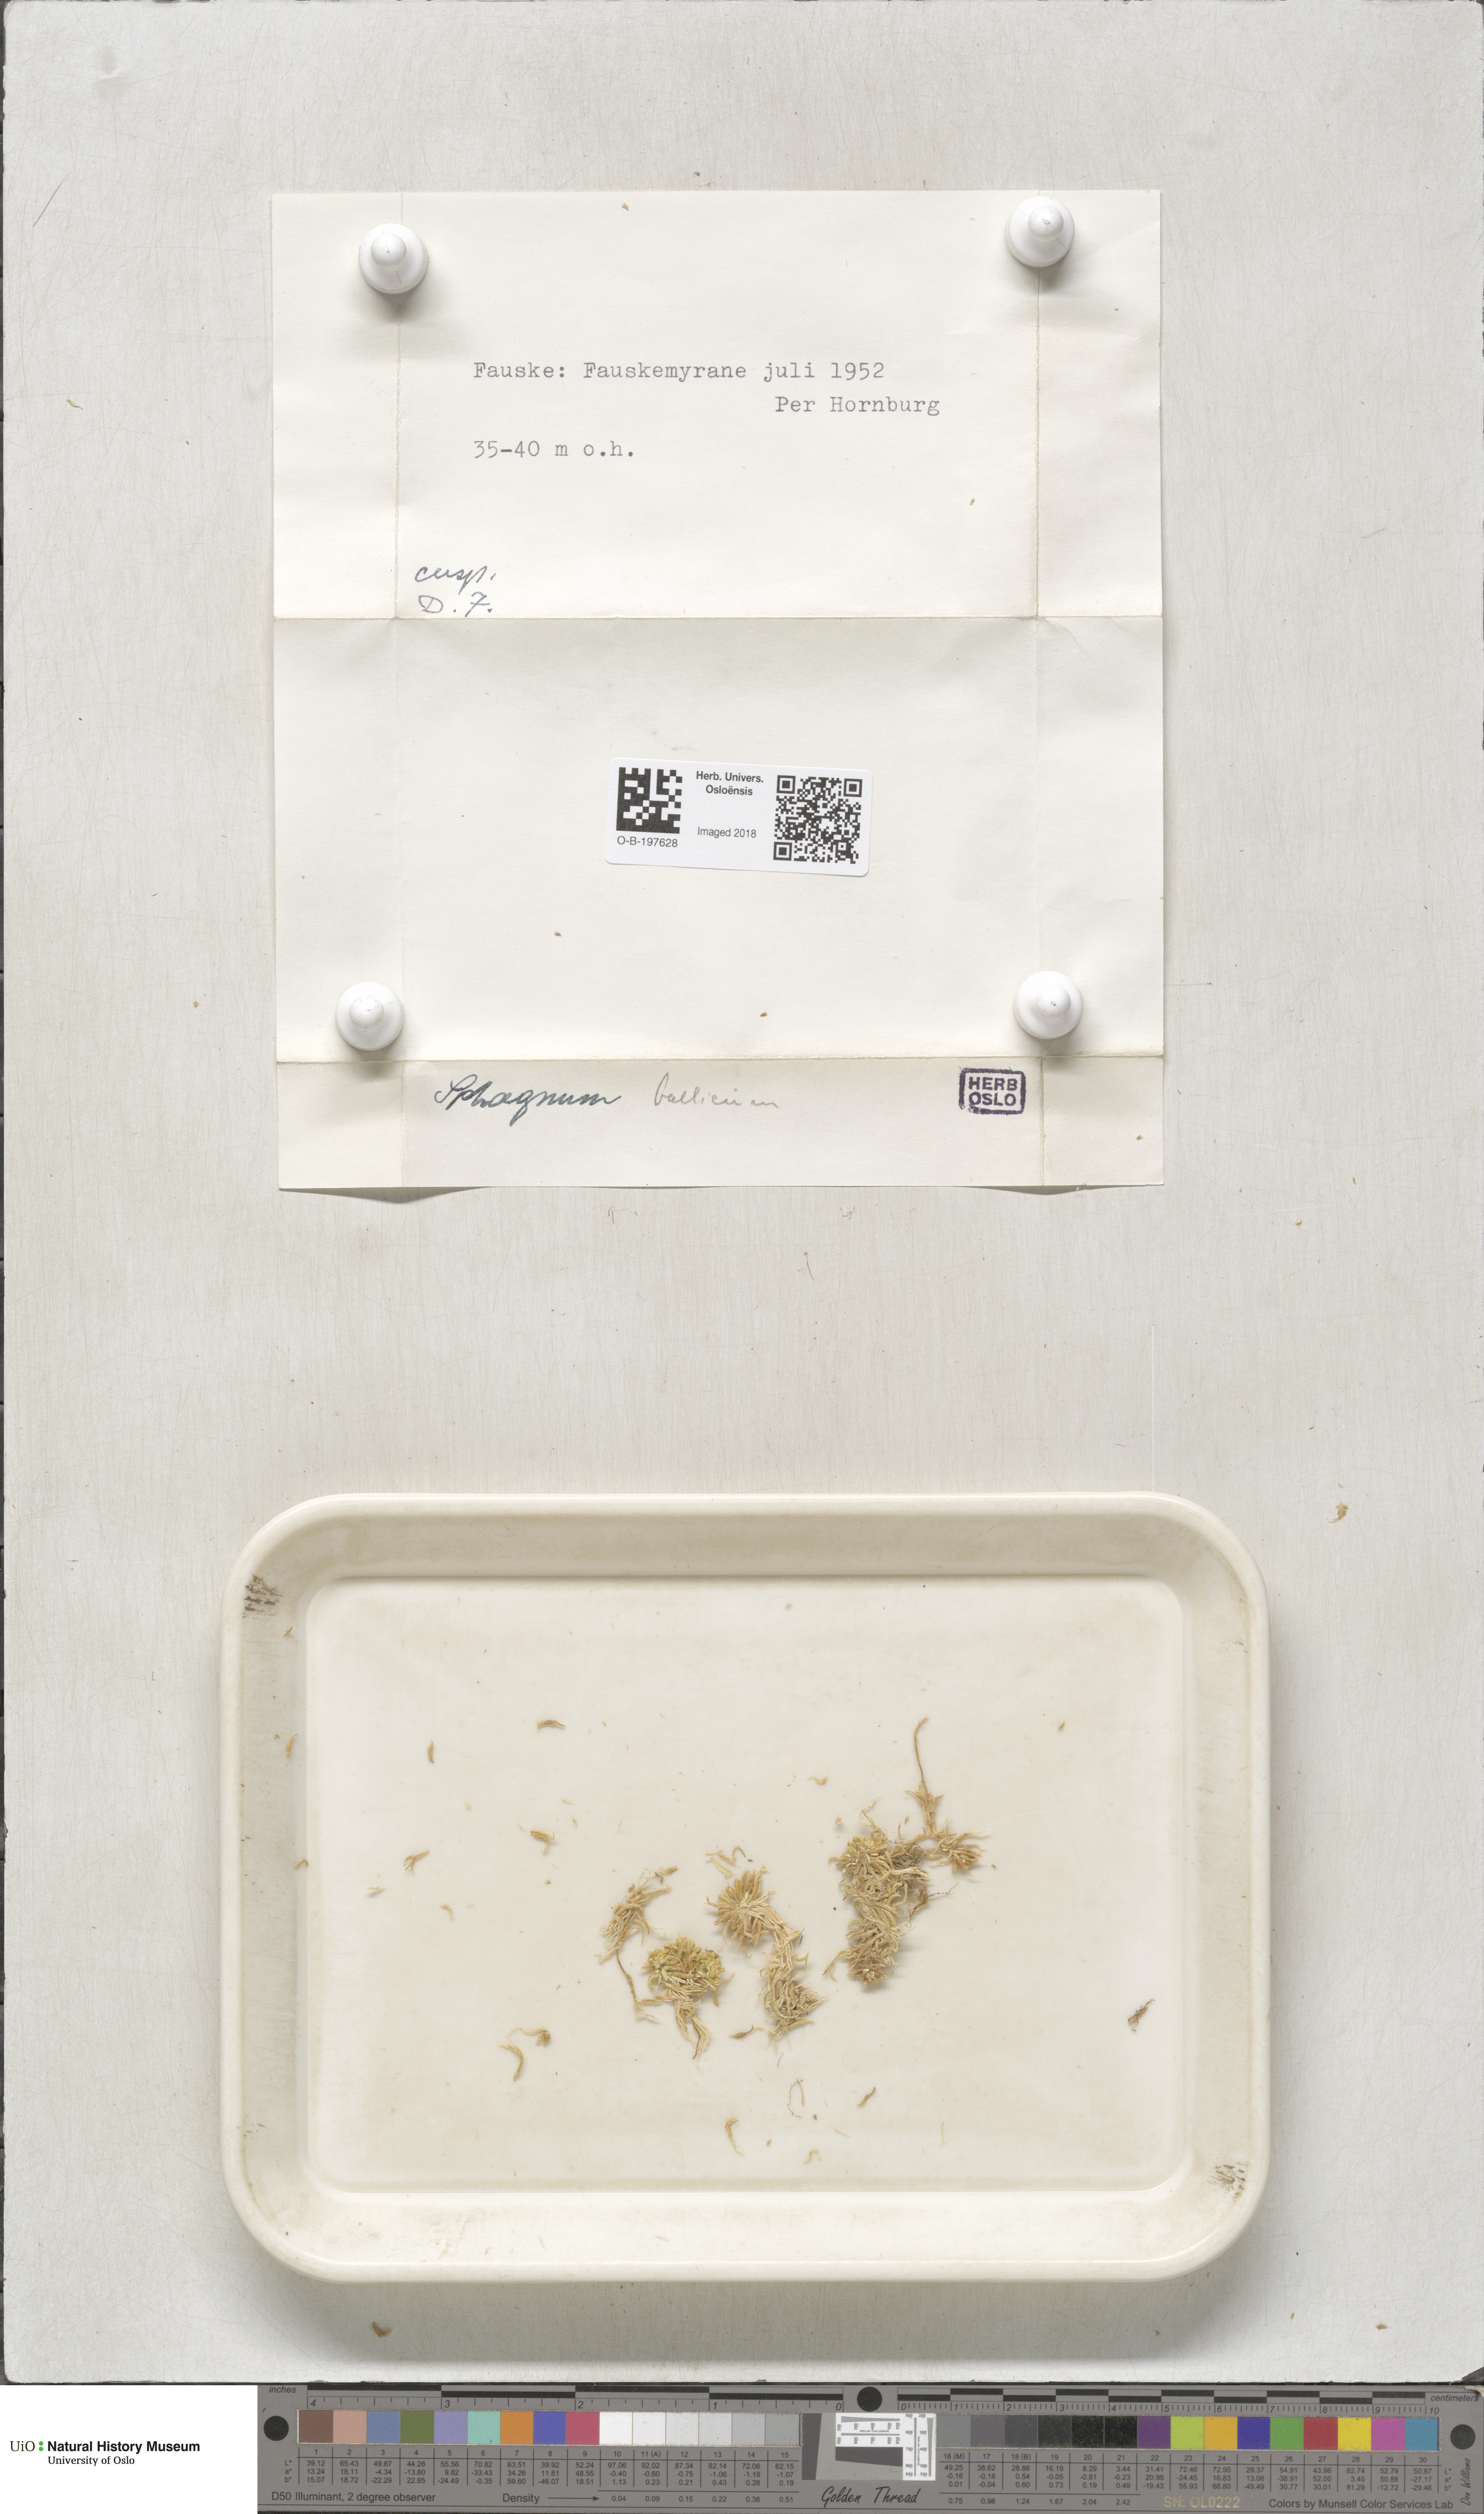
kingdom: Plantae
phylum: Bryophyta
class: Sphagnopsida
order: Sphagnales
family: Sphagnaceae
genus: Sphagnum
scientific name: Sphagnum balticum
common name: Baltic bog-moss
